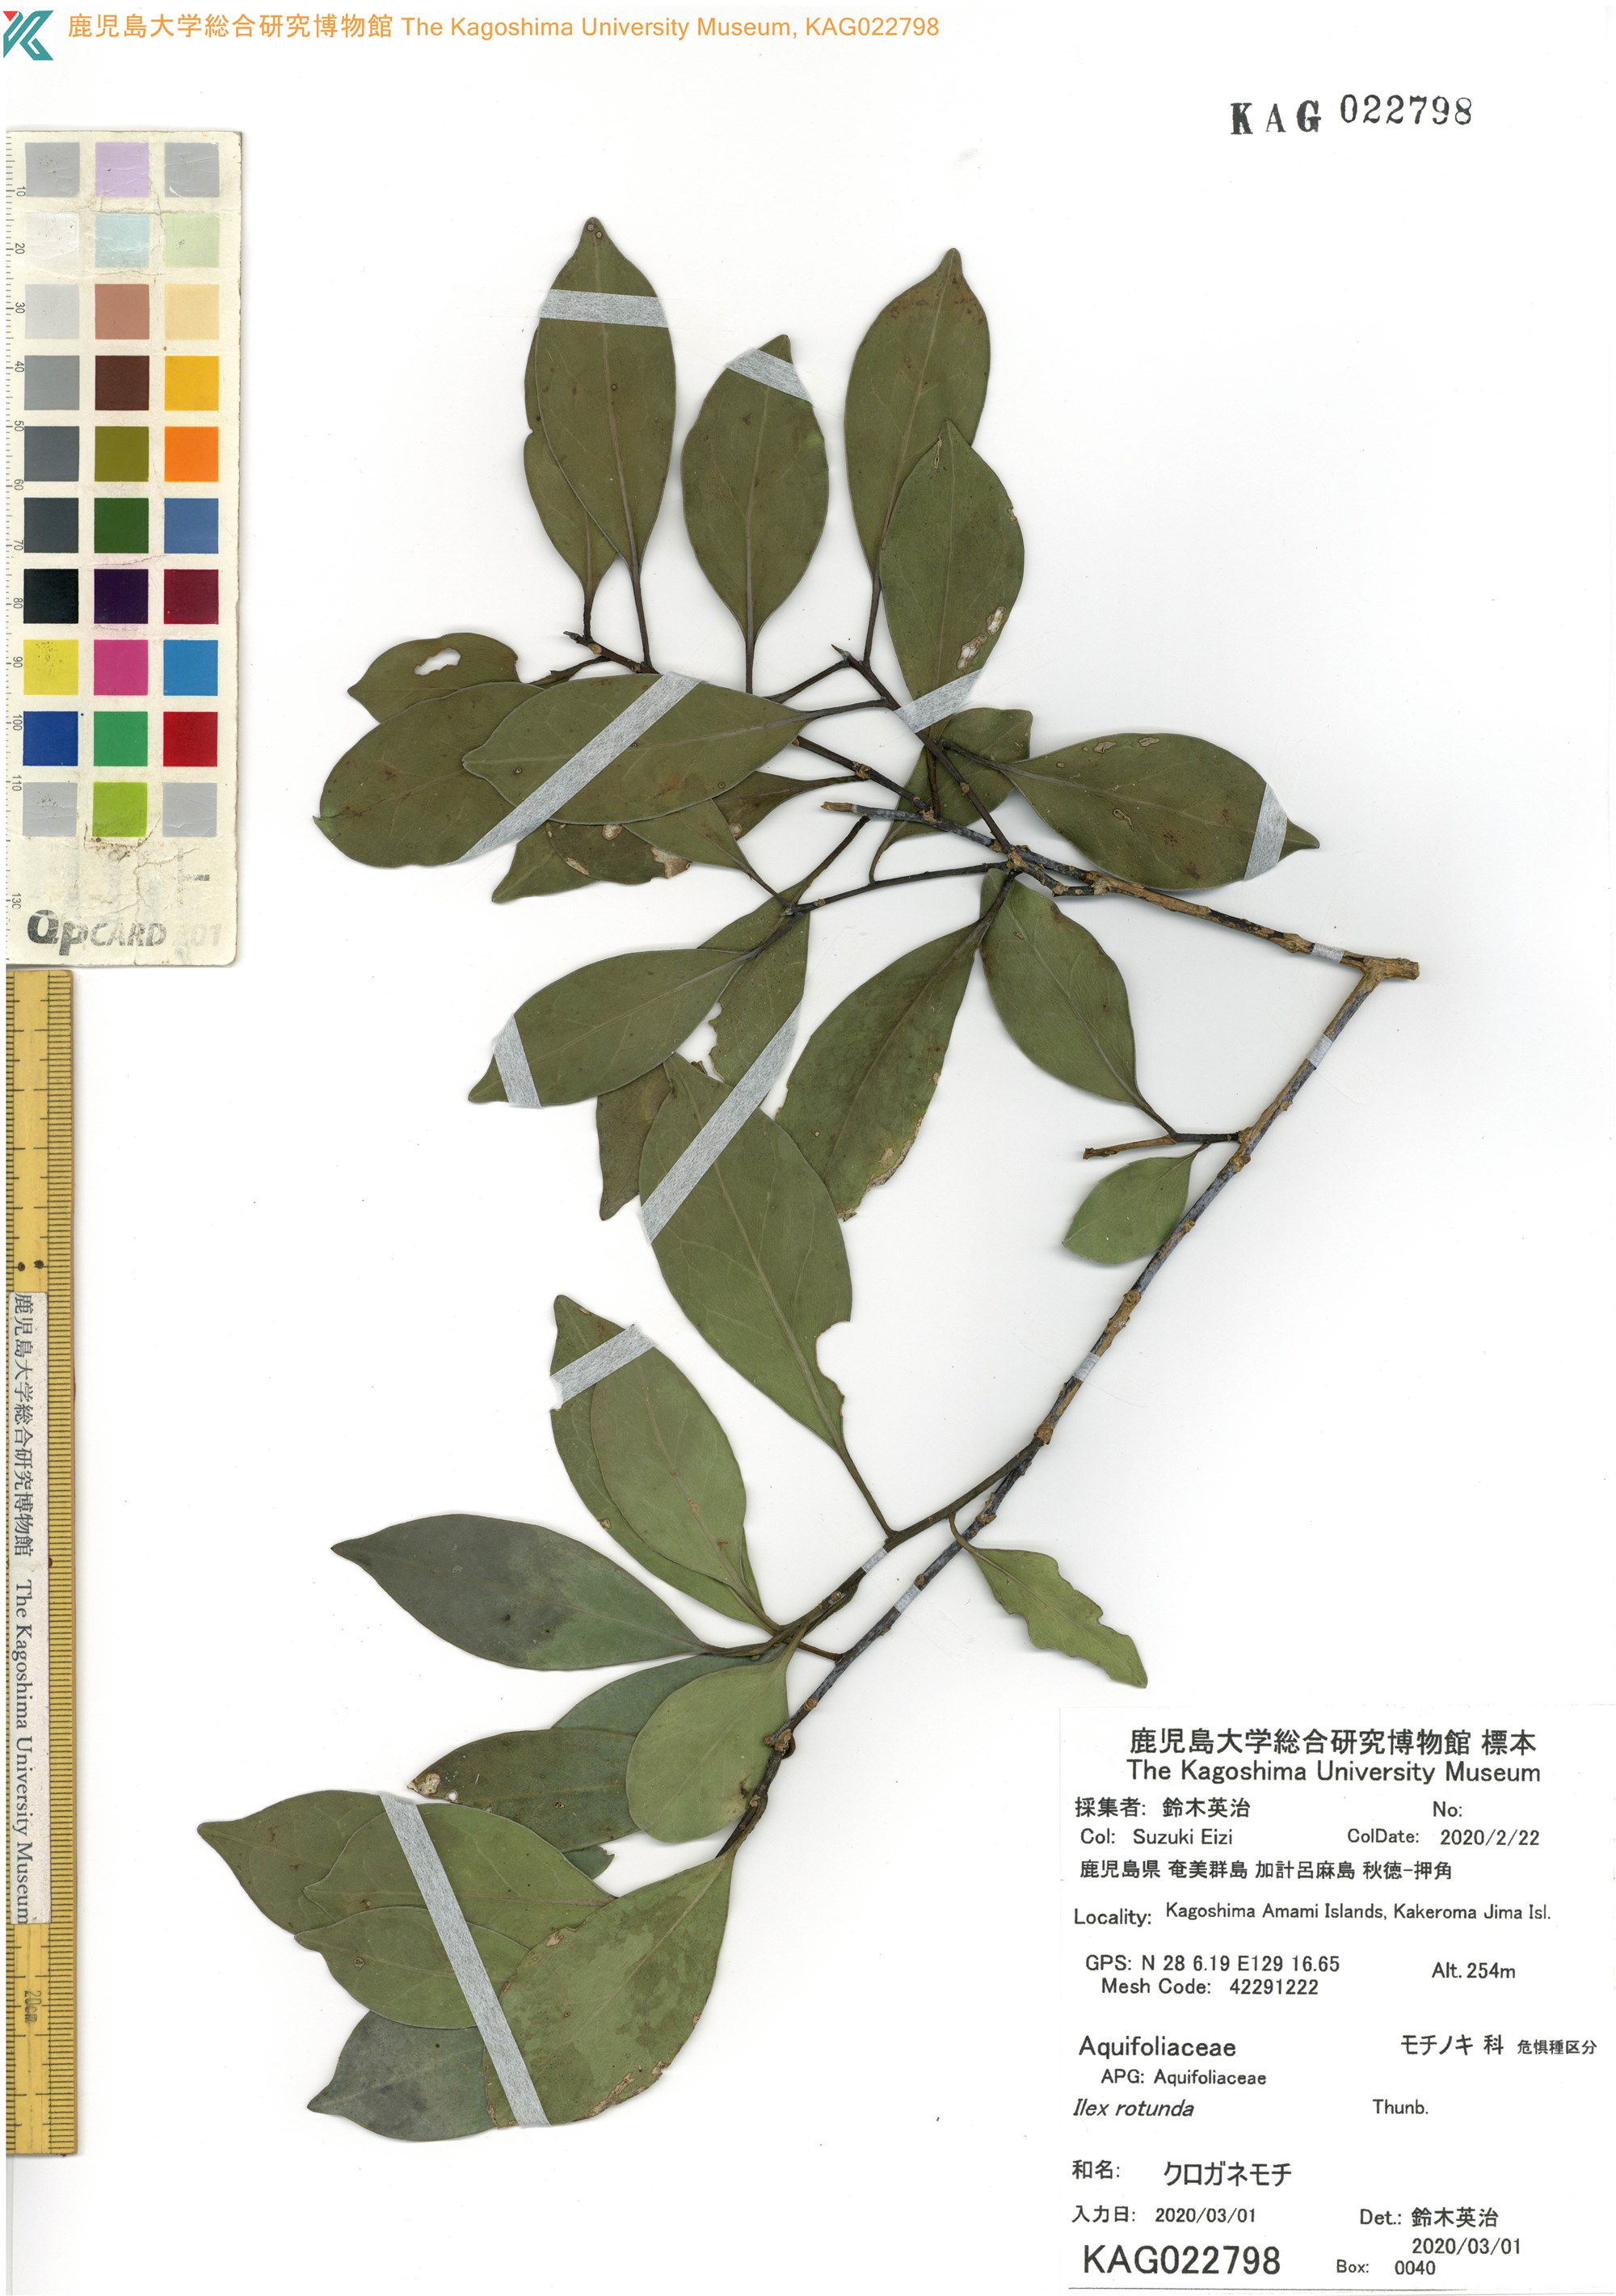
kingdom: Plantae
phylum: Tracheophyta
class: Magnoliopsida
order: Aquifoliales
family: Aquifoliaceae
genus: Ilex
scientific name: Ilex rotunda
